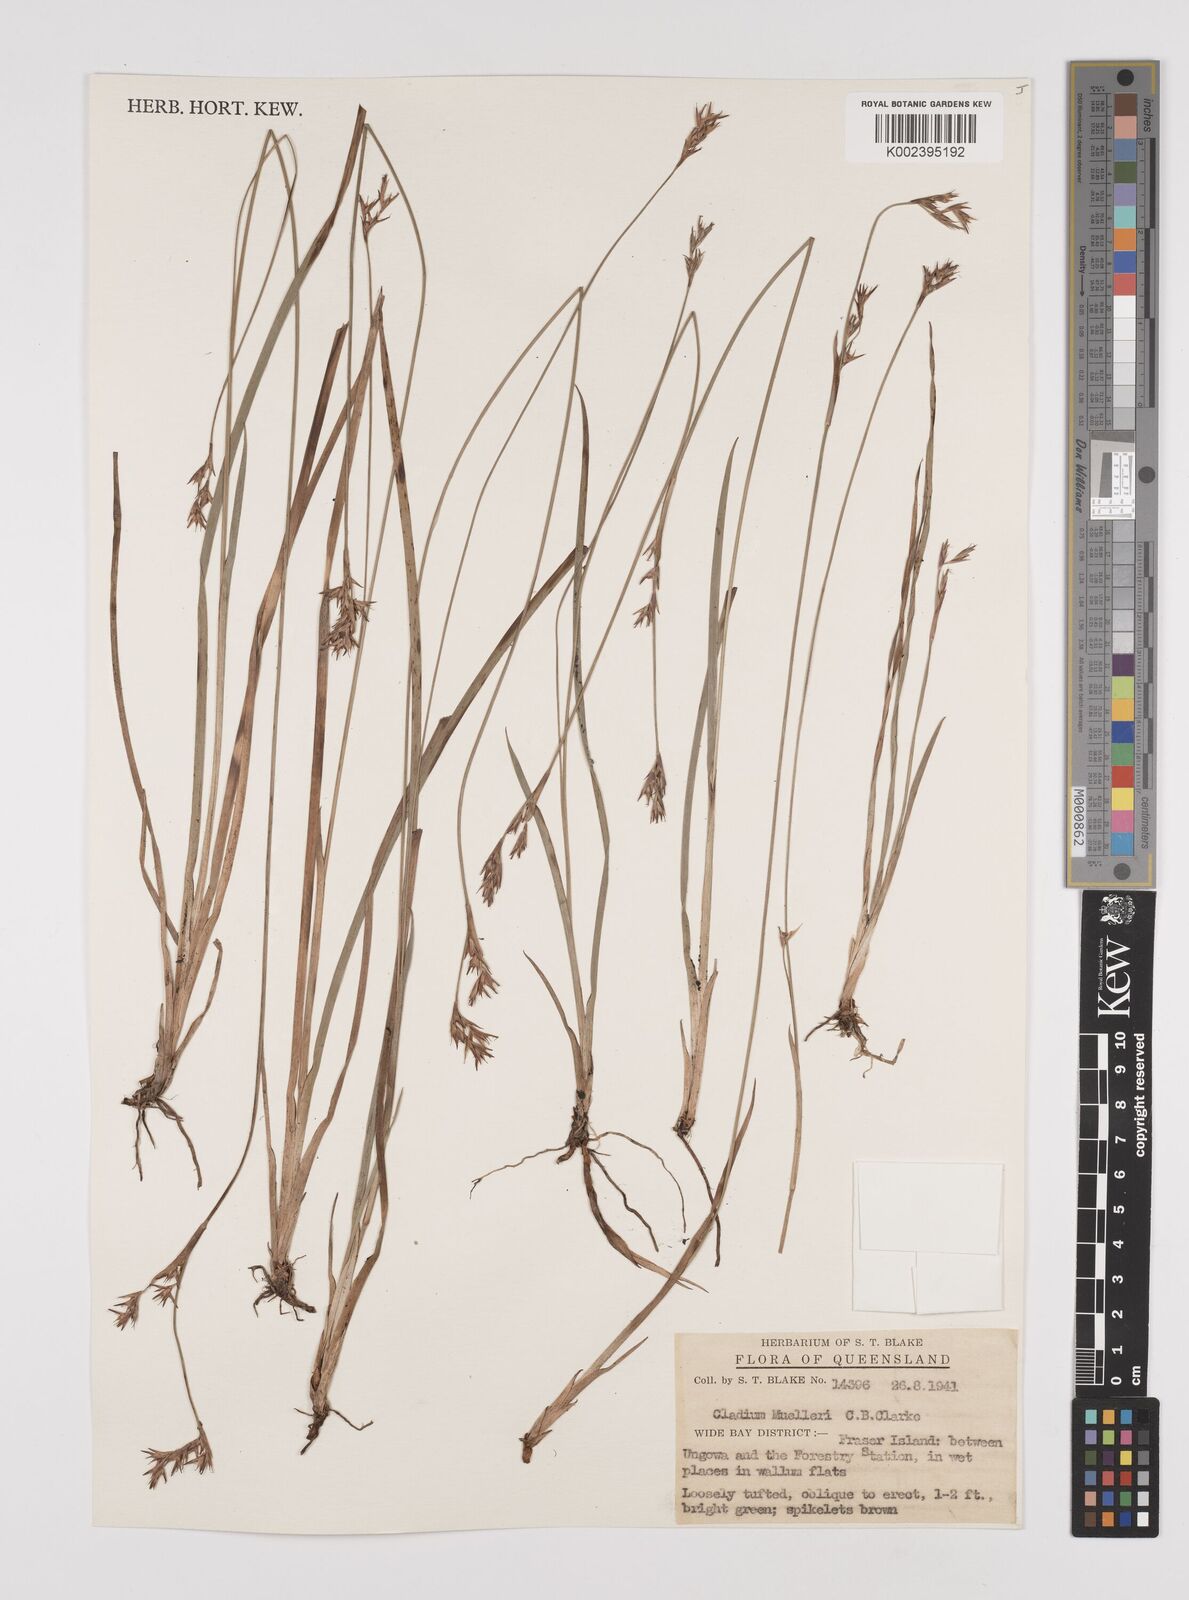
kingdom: Plantae
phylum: Tracheophyta
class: Liliopsida
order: Poales
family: Cyperaceae
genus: Machaerina
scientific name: Machaerina muelleri
